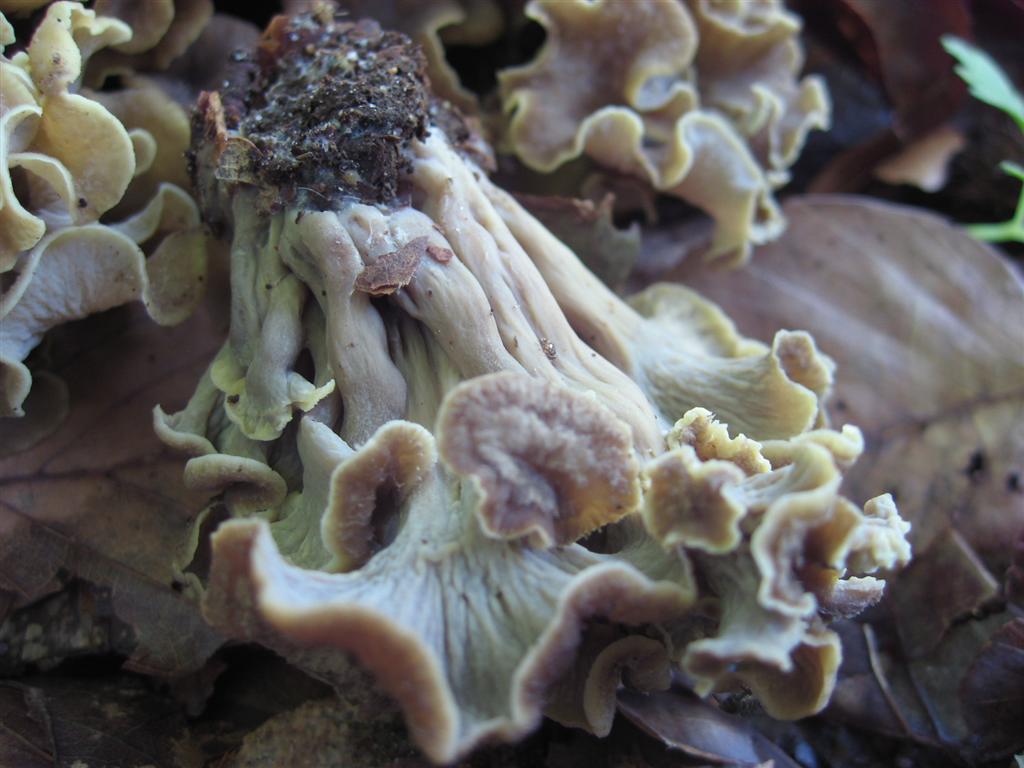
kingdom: Fungi
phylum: Basidiomycota
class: Agaricomycetes
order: Cantharellales
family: Hydnaceae
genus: Craterellus
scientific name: Craterellus undulatus
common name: liden kantarel
